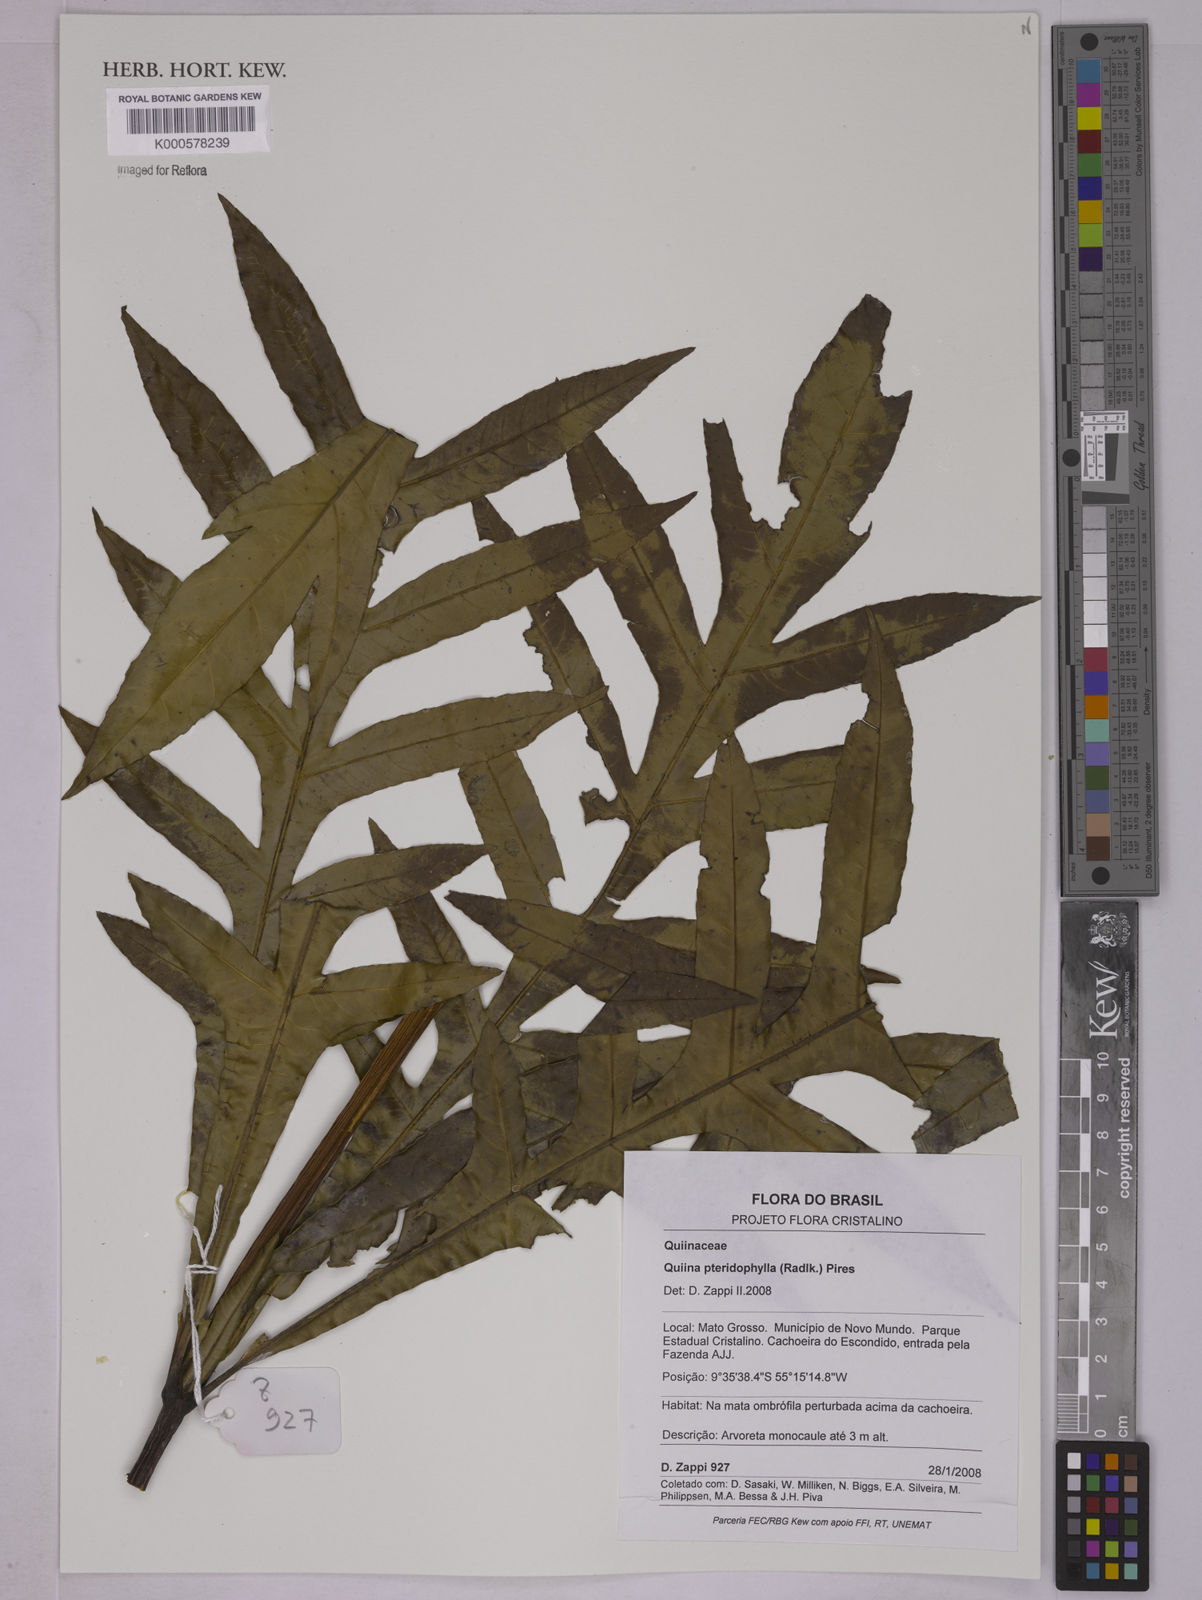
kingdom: Plantae
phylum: Tracheophyta
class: Magnoliopsida
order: Malpighiales
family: Quiinaceae
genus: Quiina
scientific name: Quiina pteridophylla
